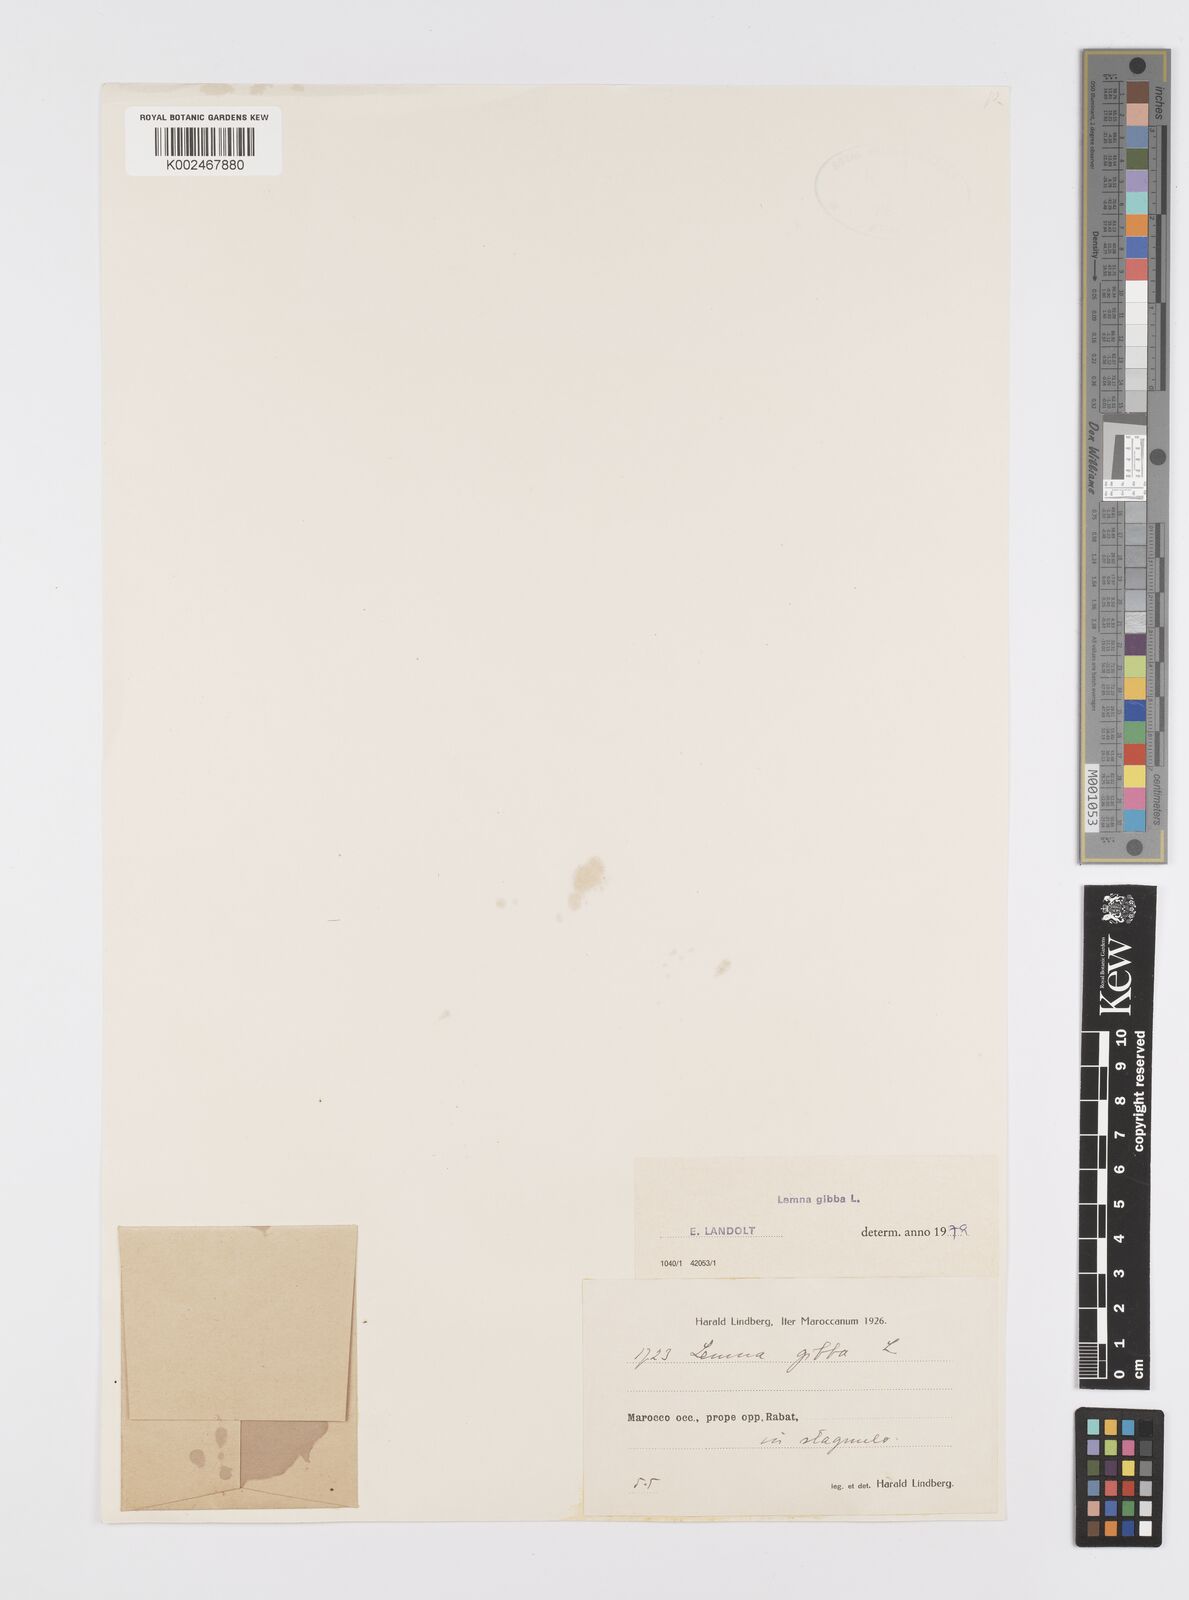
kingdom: Plantae
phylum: Tracheophyta
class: Liliopsida
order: Alismatales
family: Araceae
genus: Lemna
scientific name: Lemna gibba
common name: Fat duckweed
